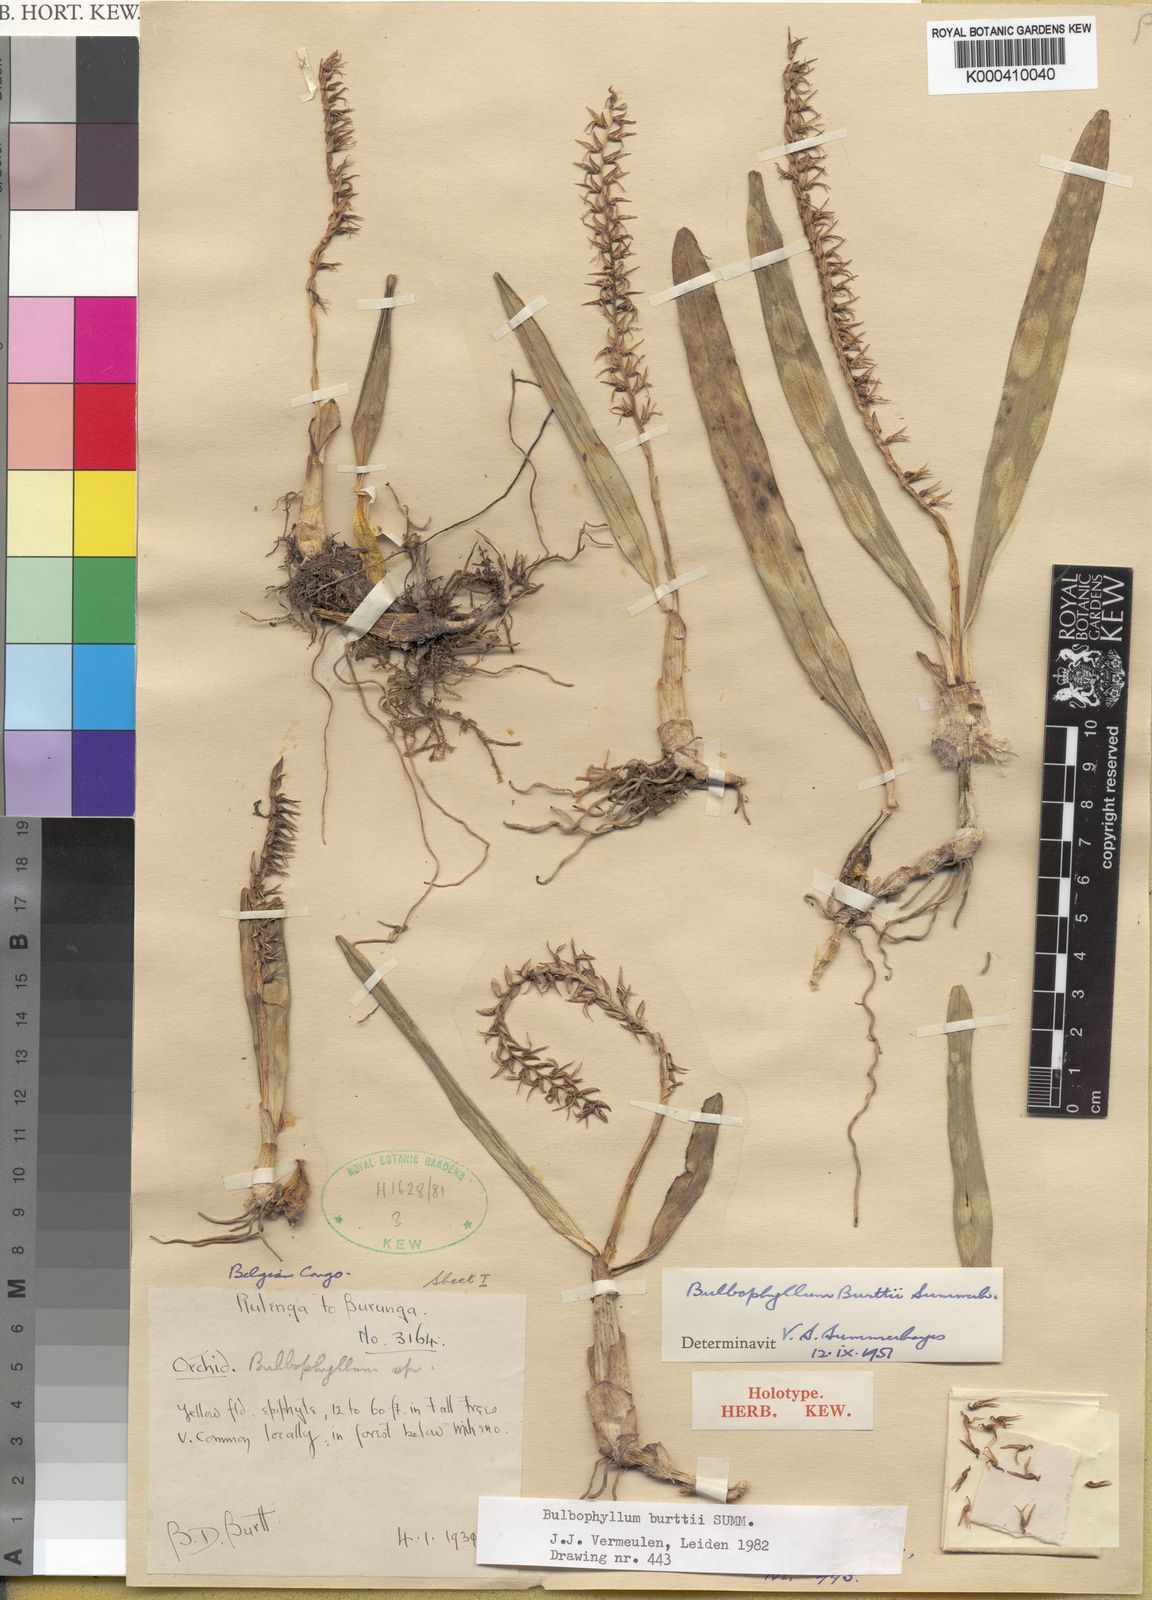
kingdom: Plantae
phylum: Tracheophyta
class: Liliopsida
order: Asparagales
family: Orchidaceae
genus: Bulbophyllum
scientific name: Bulbophyllum burttii
